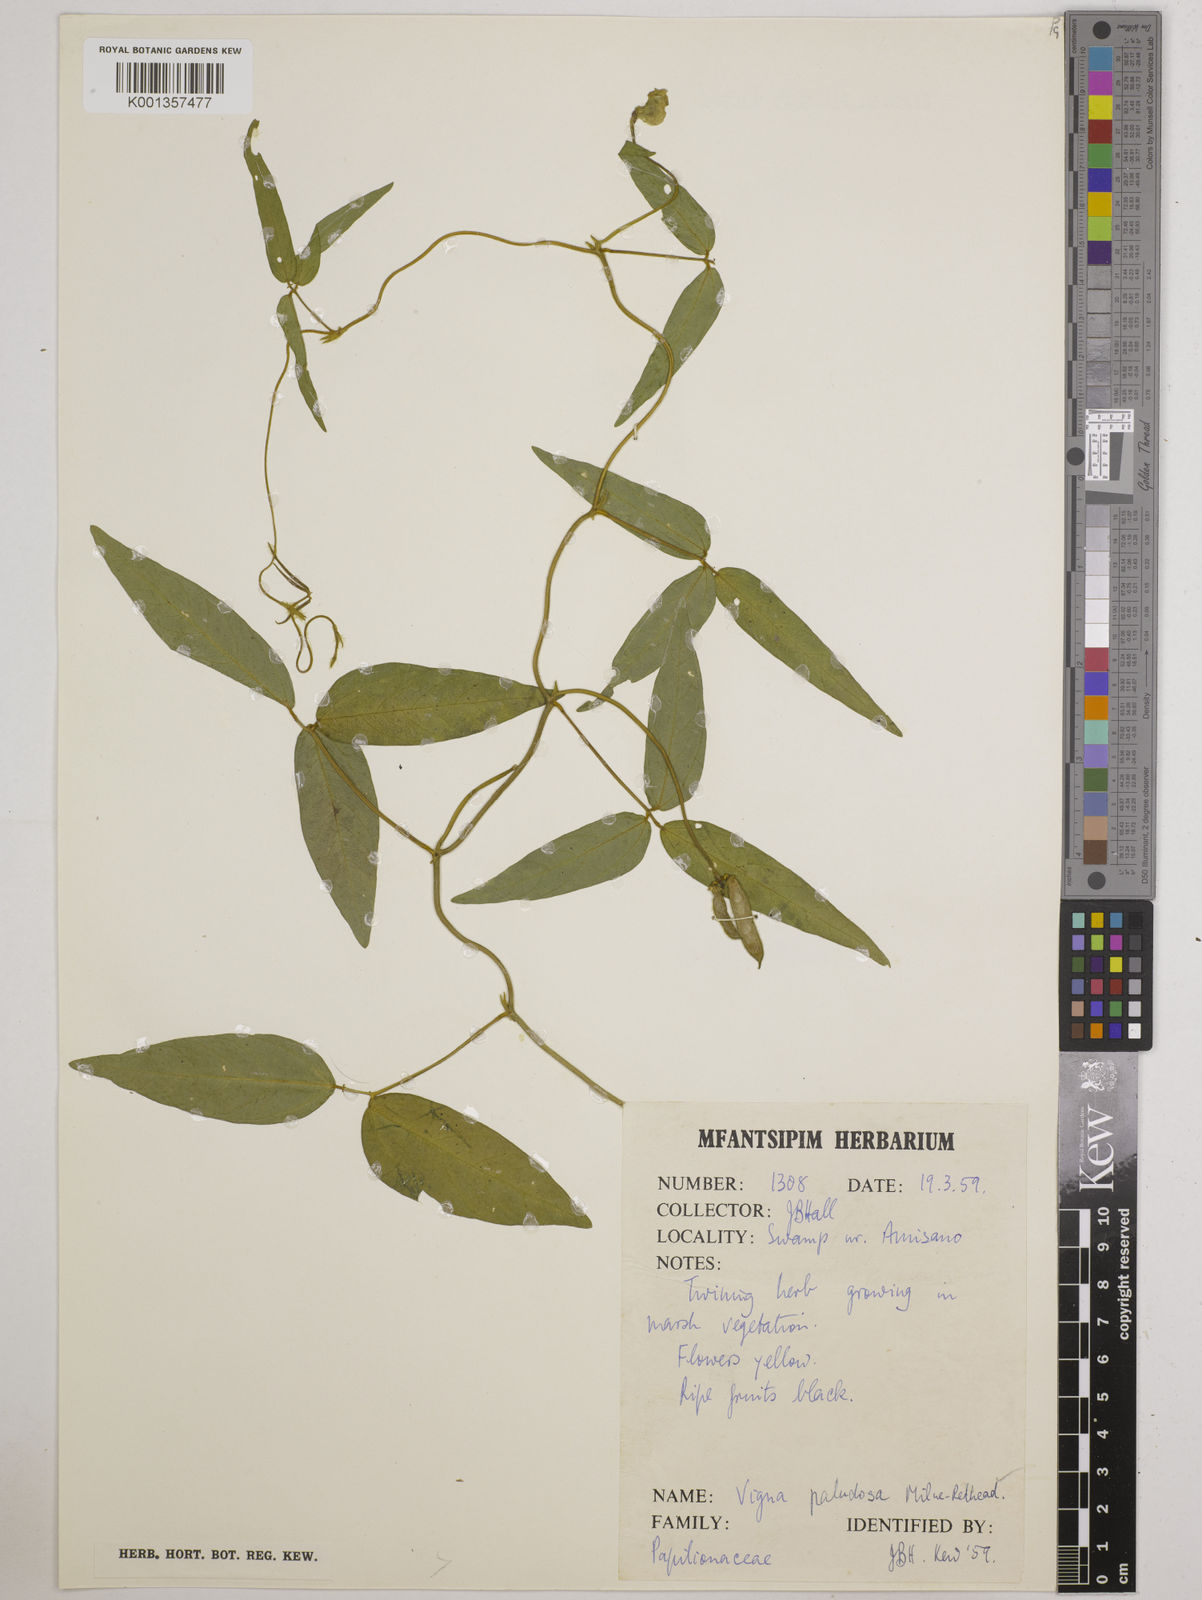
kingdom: Plantae
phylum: Tracheophyta
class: Magnoliopsida
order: Fabales
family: Fabaceae
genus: Vigna
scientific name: Vigna longifolia
